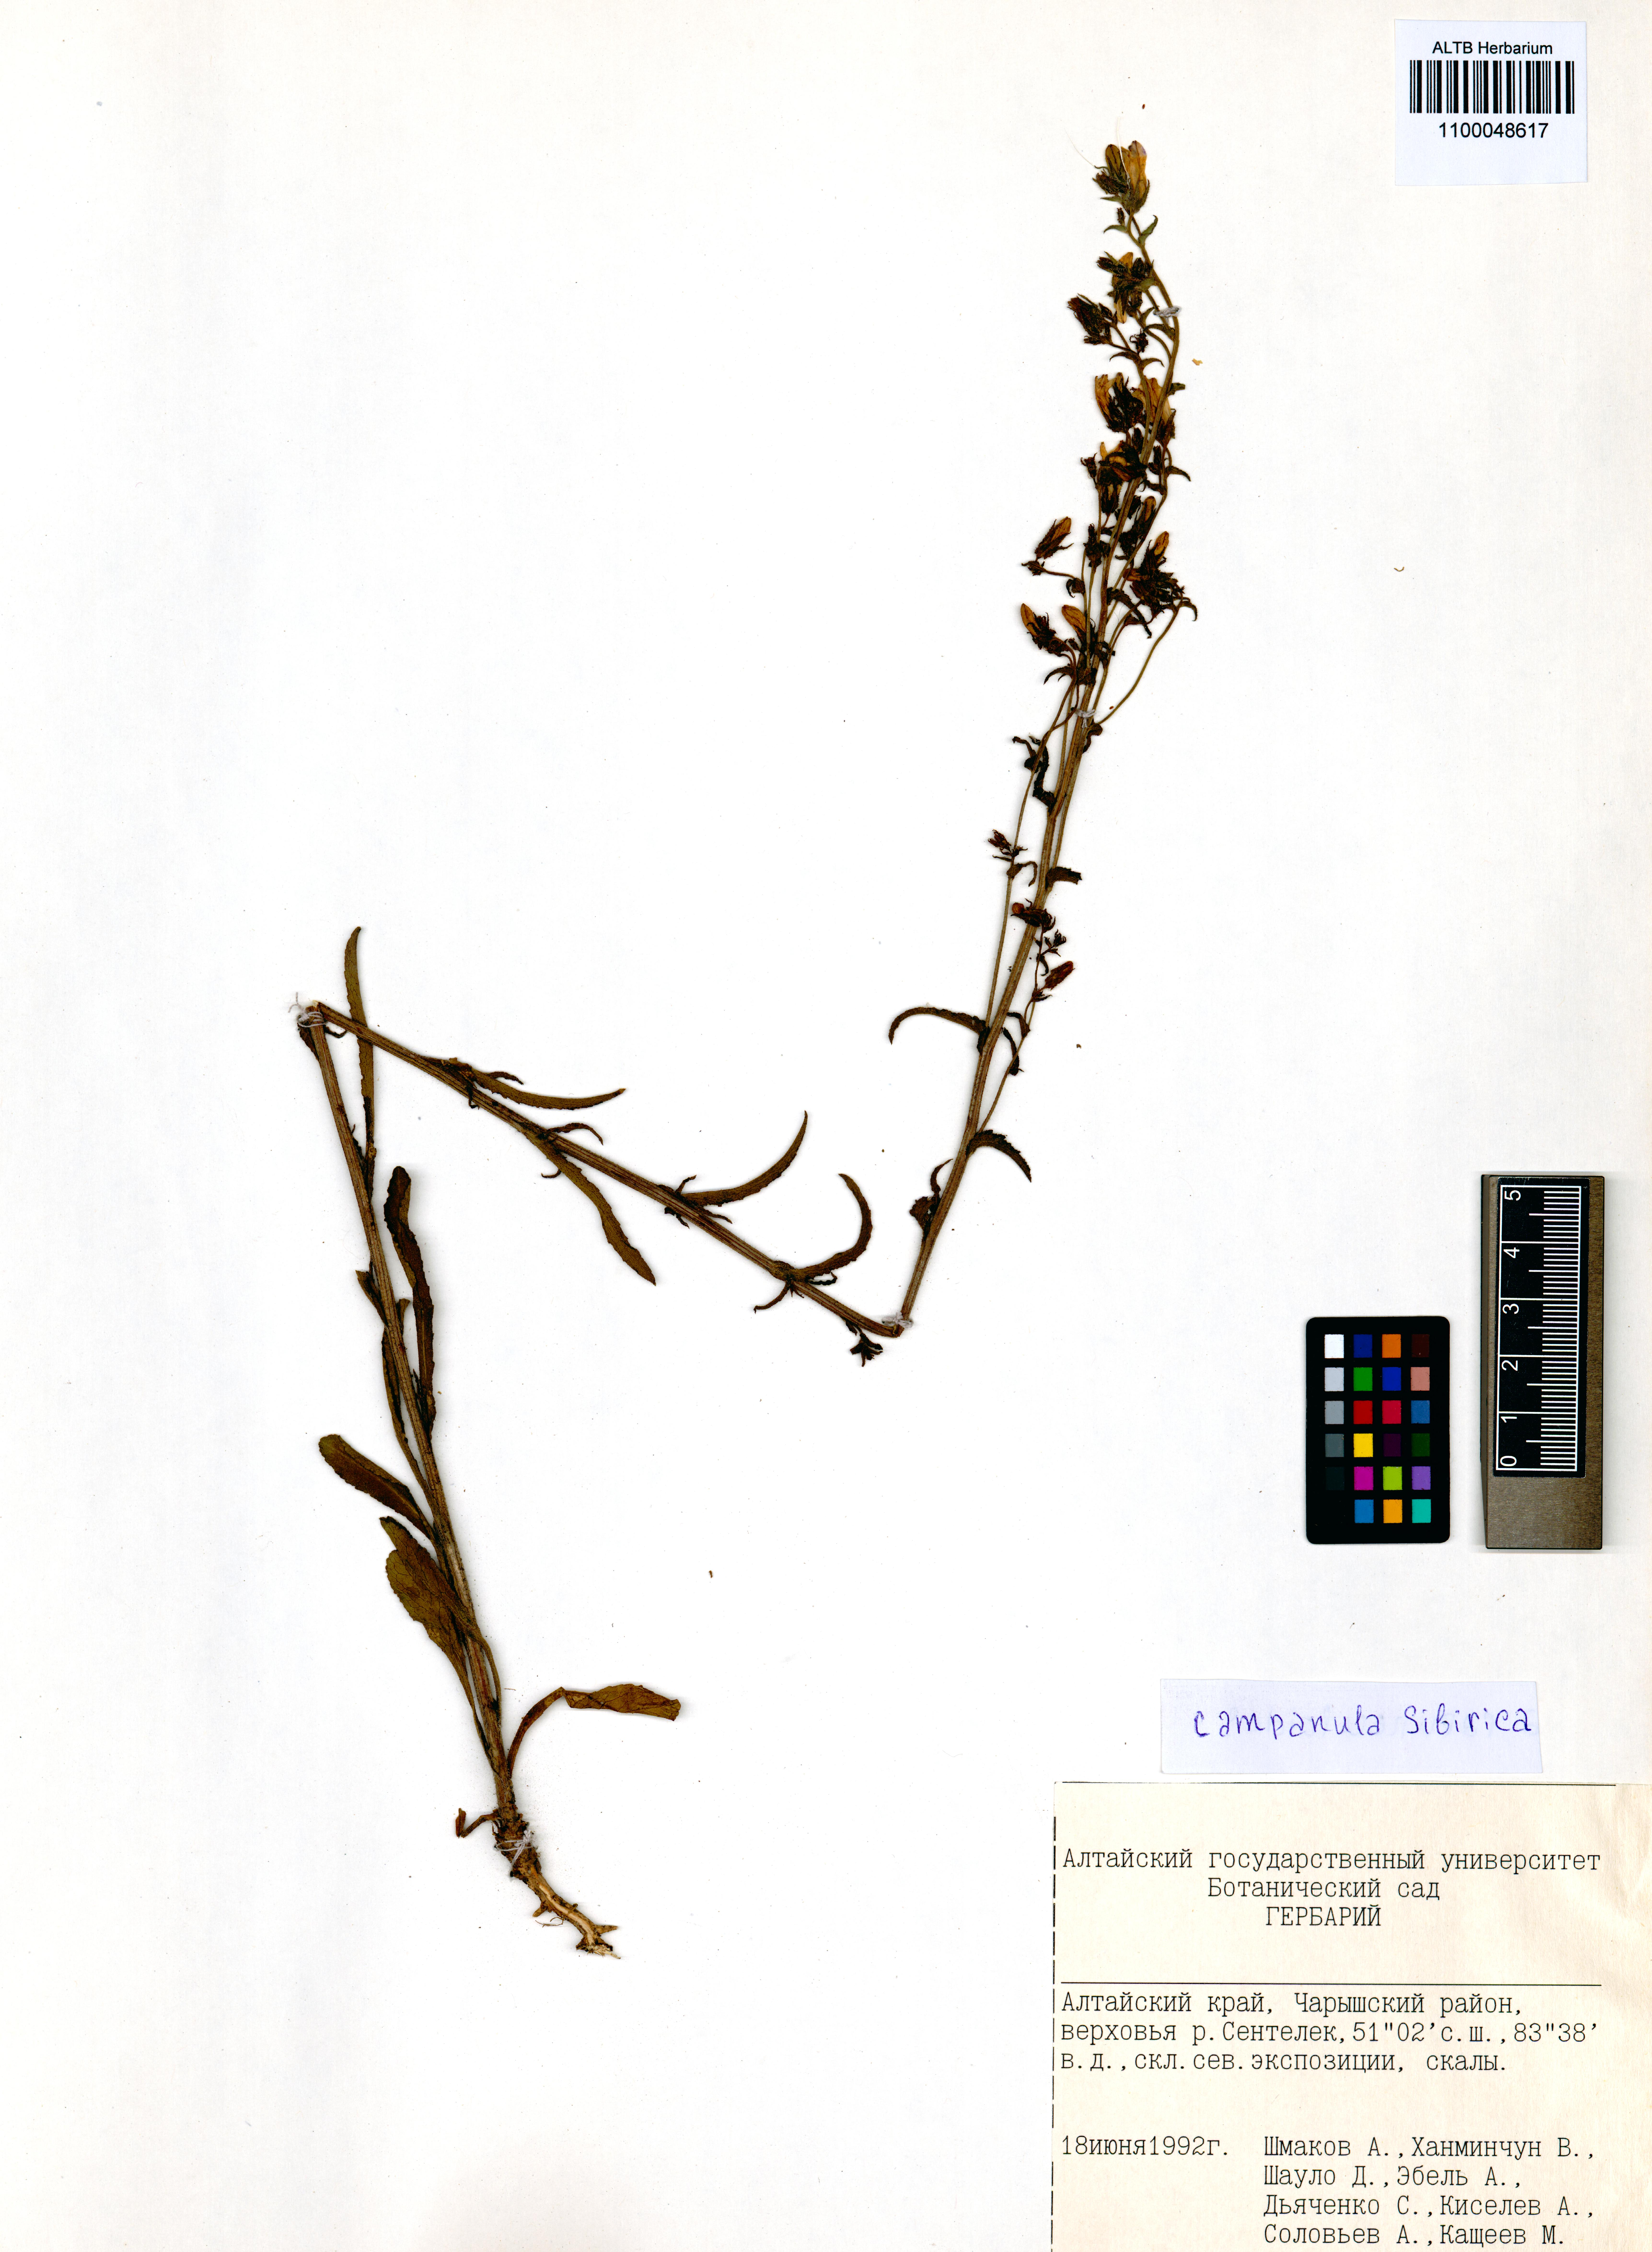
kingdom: Plantae
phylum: Tracheophyta
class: Magnoliopsida
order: Asterales
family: Campanulaceae
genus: Campanula
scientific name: Campanula sibirica
